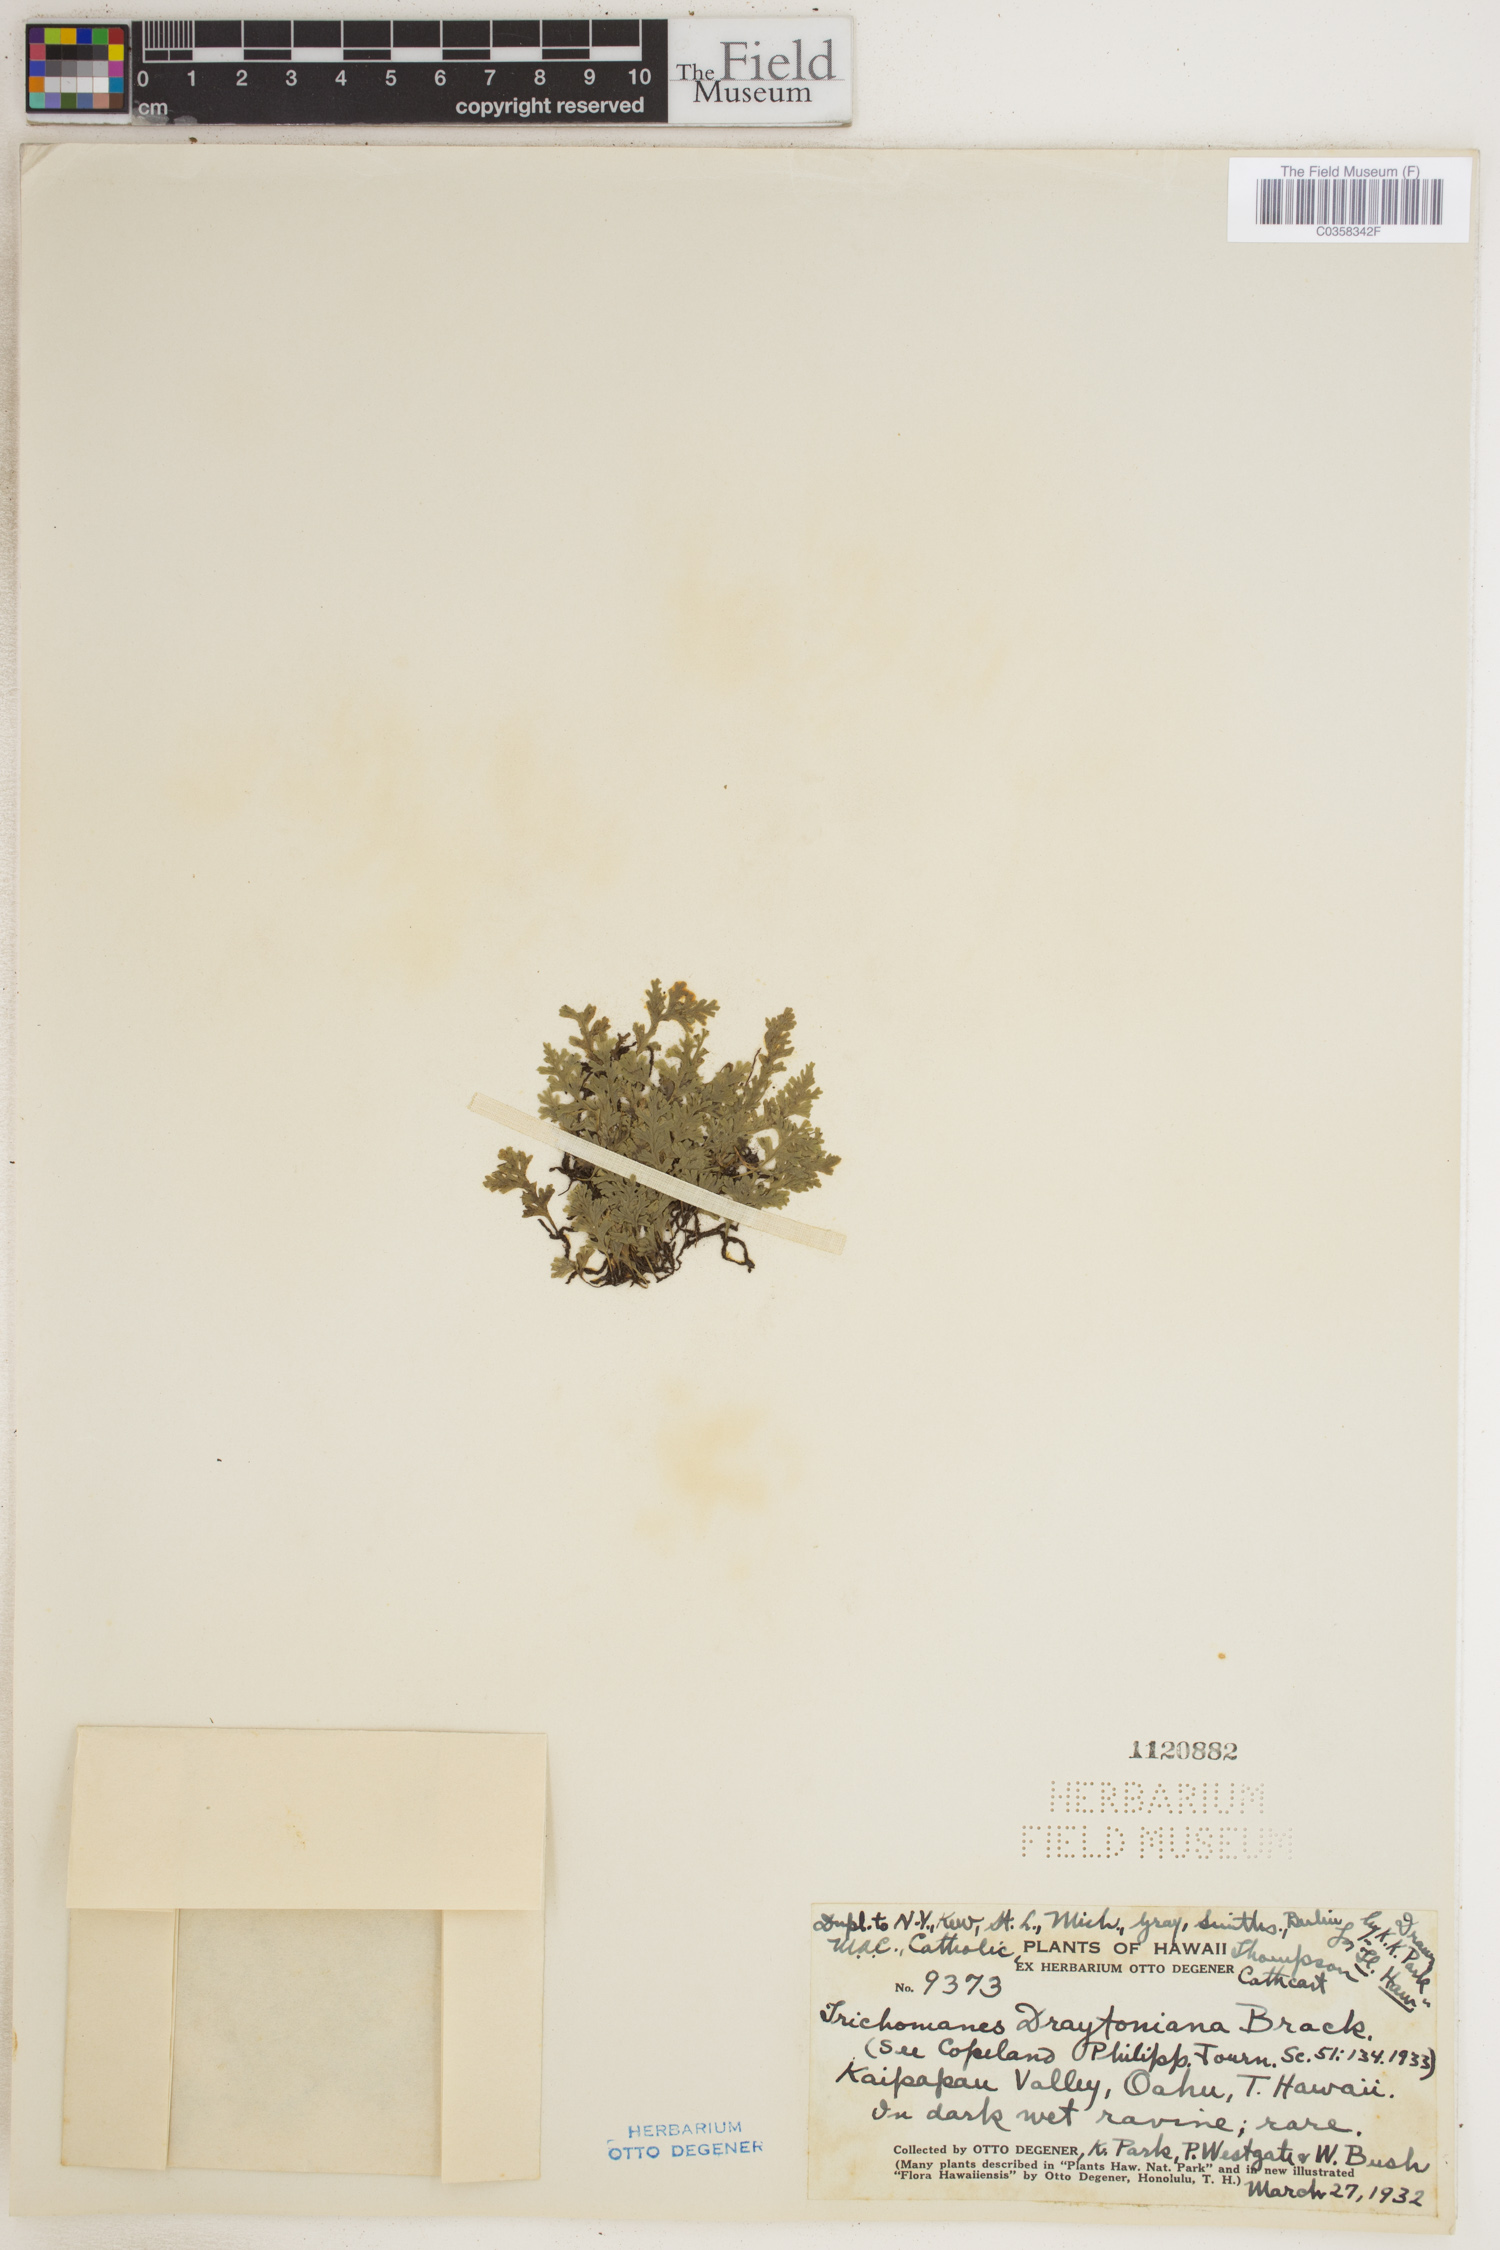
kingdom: Plantae
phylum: Tracheophyta
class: Polypodiopsida
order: Hymenophyllales
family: Hymenophyllaceae
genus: Crepidomanes
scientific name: Crepidomanes draytonianum
